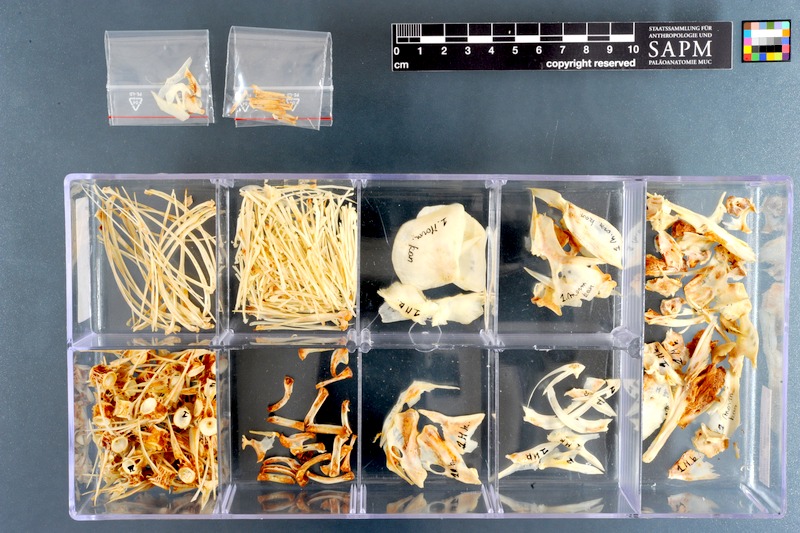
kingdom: Animalia
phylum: Chordata
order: Osteoglossiformes
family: Mormyridae
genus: Mormyrus
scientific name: Mormyrus kannume
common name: Elephant-snout fish
